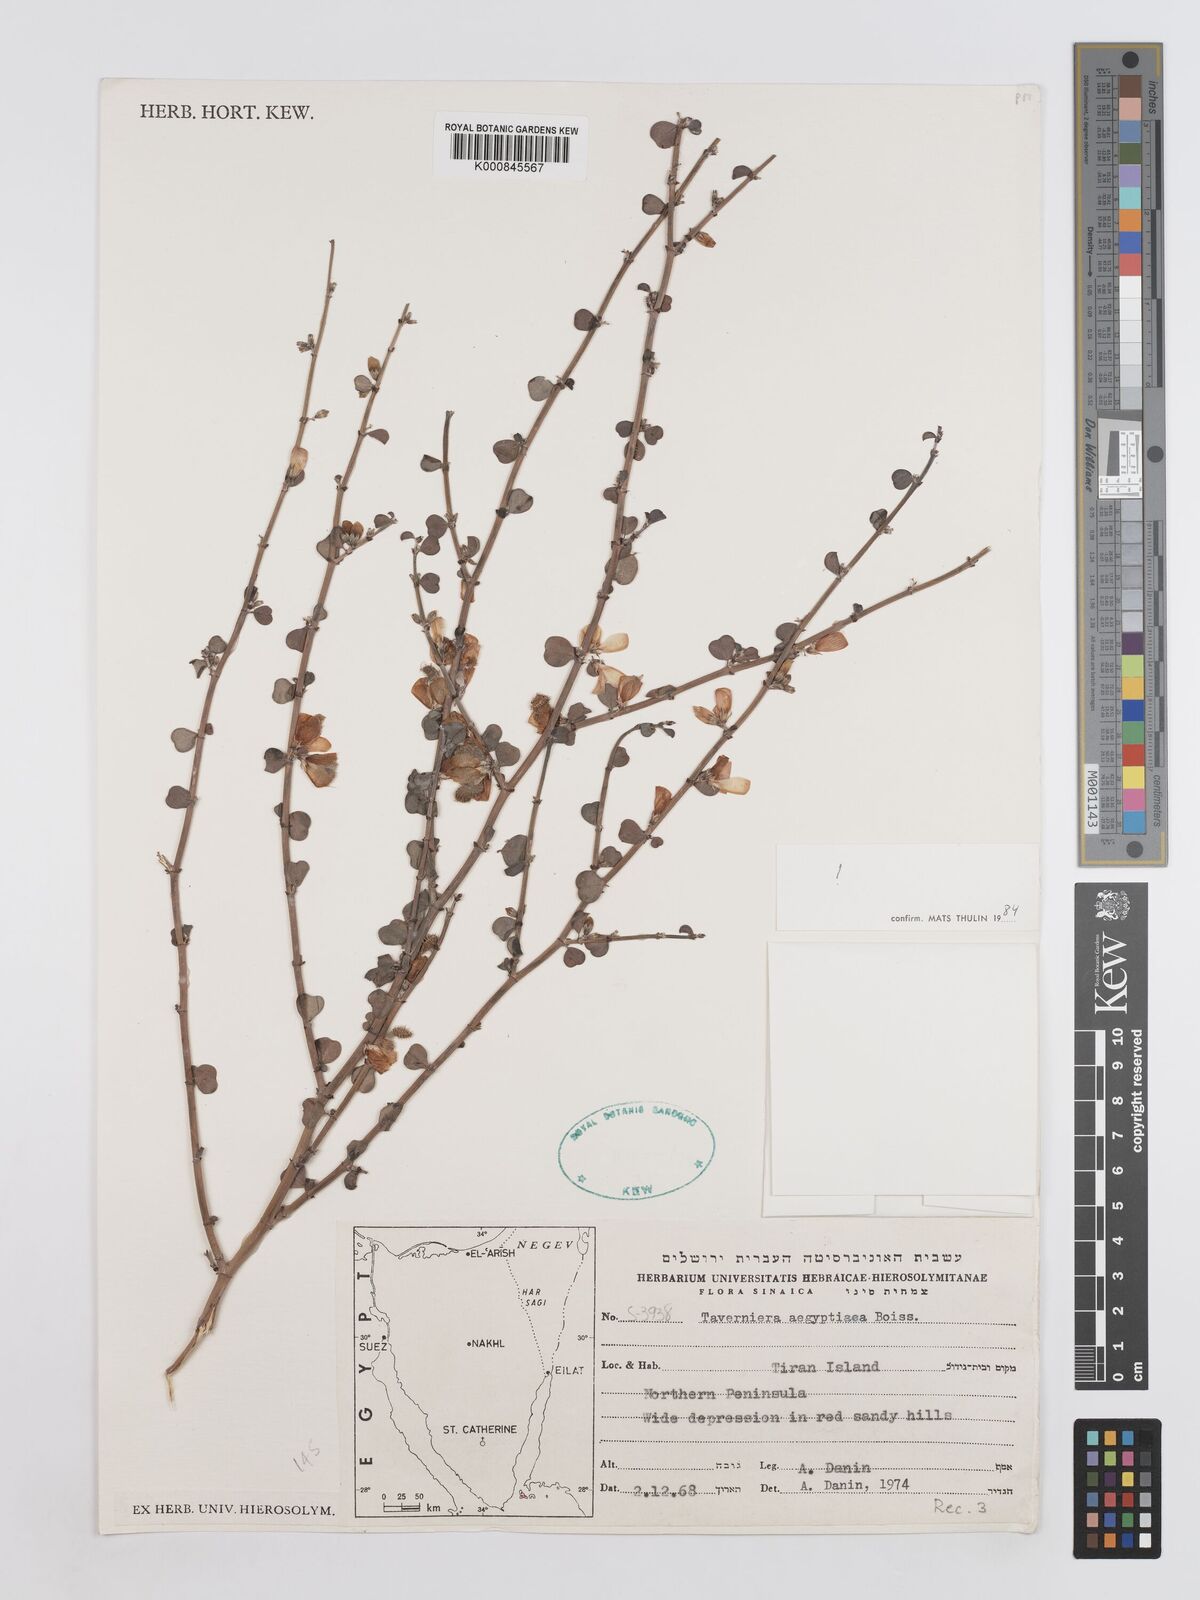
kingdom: Plantae
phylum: Tracheophyta
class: Magnoliopsida
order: Fabales
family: Fabaceae
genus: Taverniera
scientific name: Taverniera aegyptiaca
